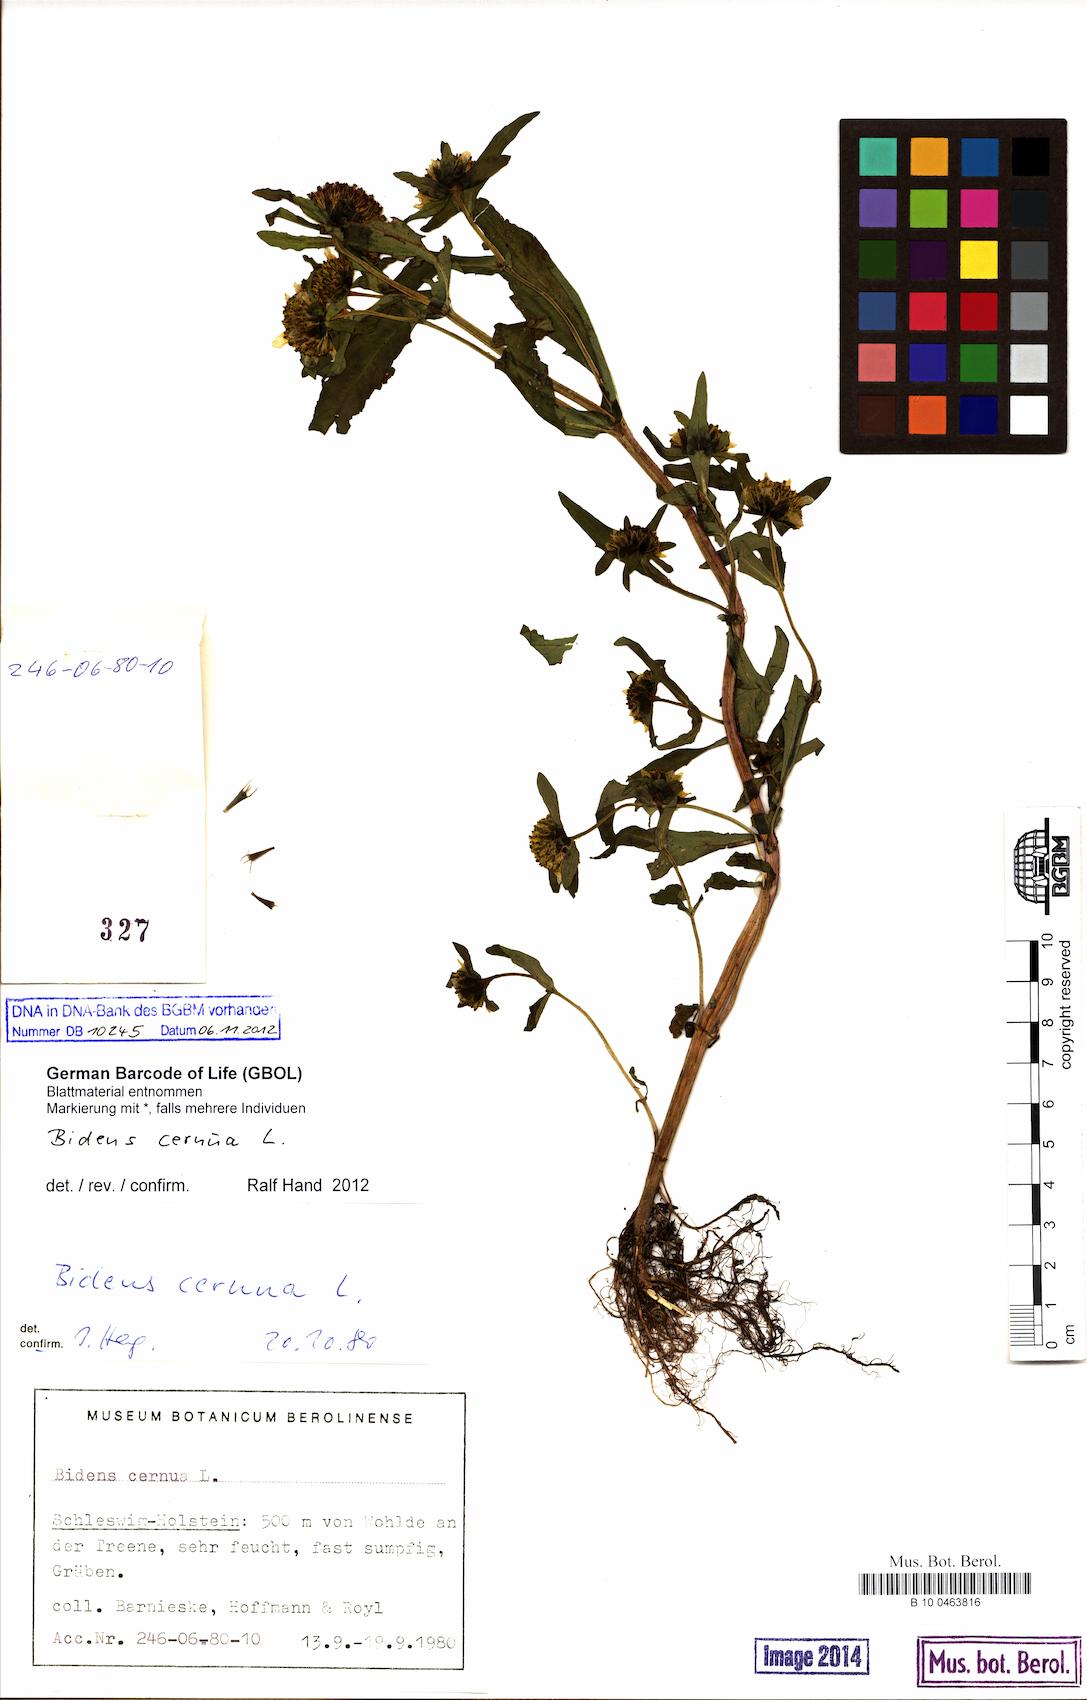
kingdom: Plantae
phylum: Tracheophyta
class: Magnoliopsida
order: Asterales
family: Asteraceae
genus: Bidens
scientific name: Bidens cernua
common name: Nodding bur-marigold
